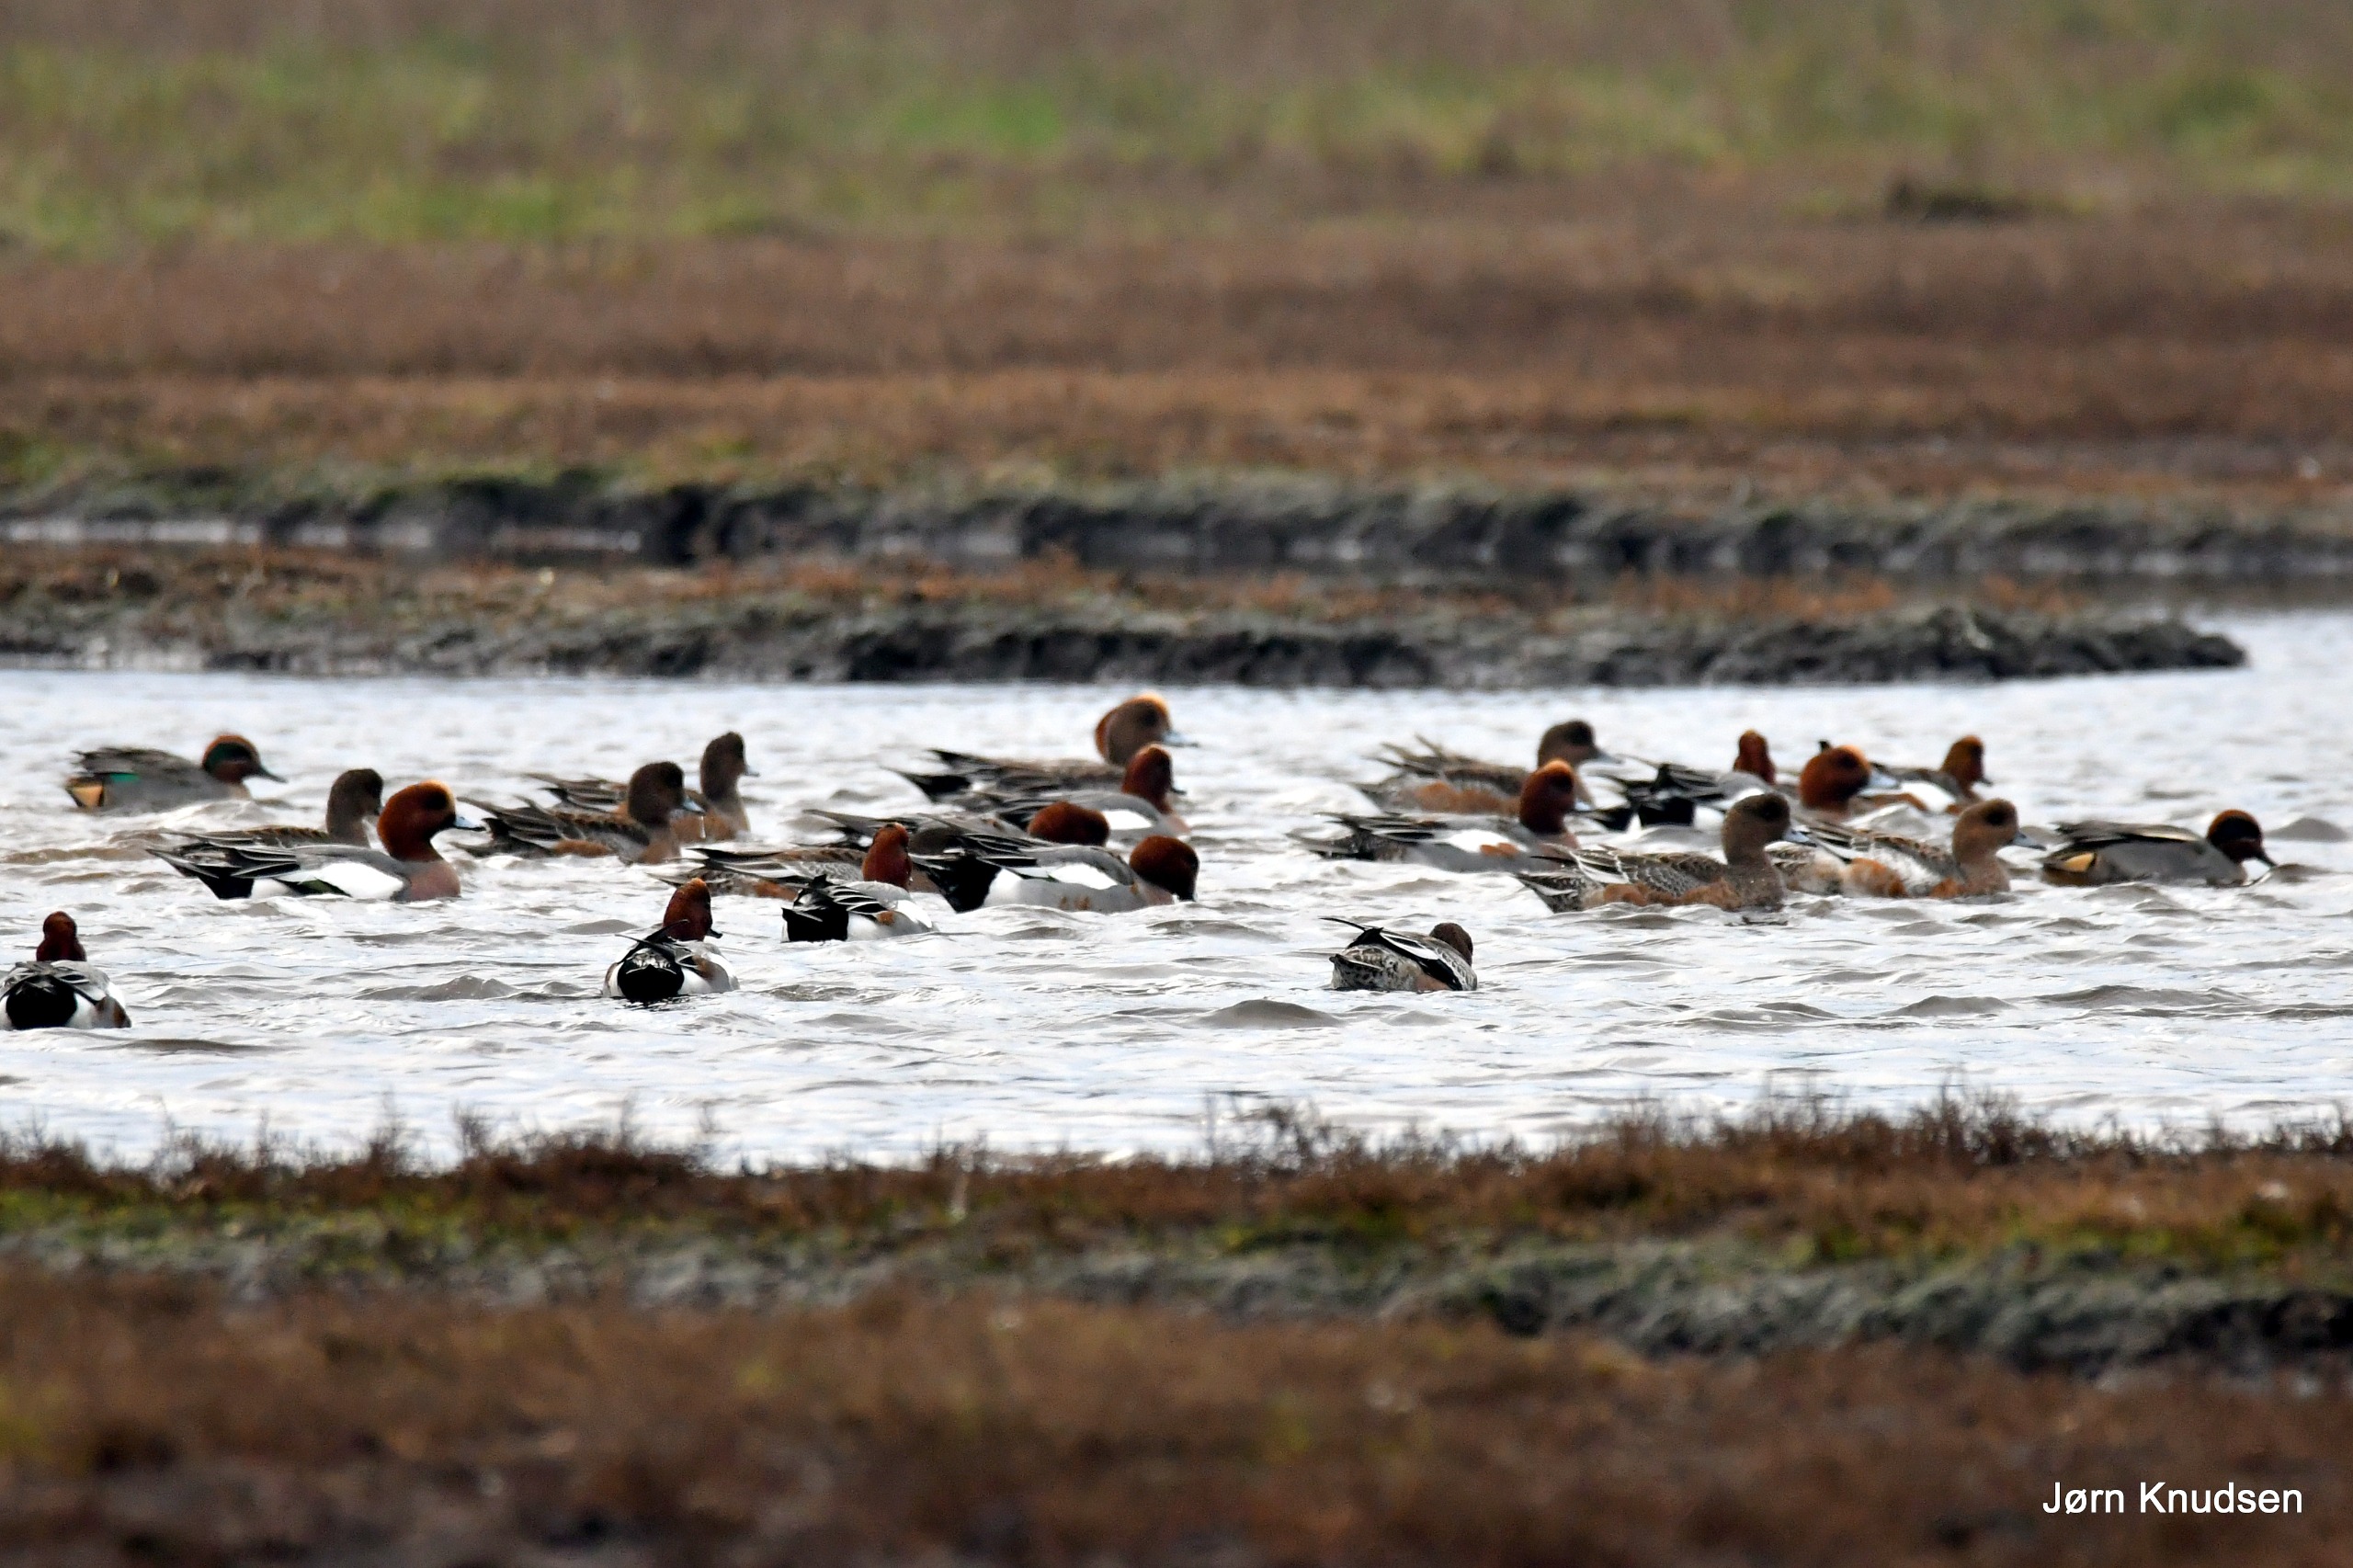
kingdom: Animalia
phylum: Chordata
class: Aves
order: Anseriformes
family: Anatidae
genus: Mareca
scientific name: Mareca penelope
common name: Pibeand
